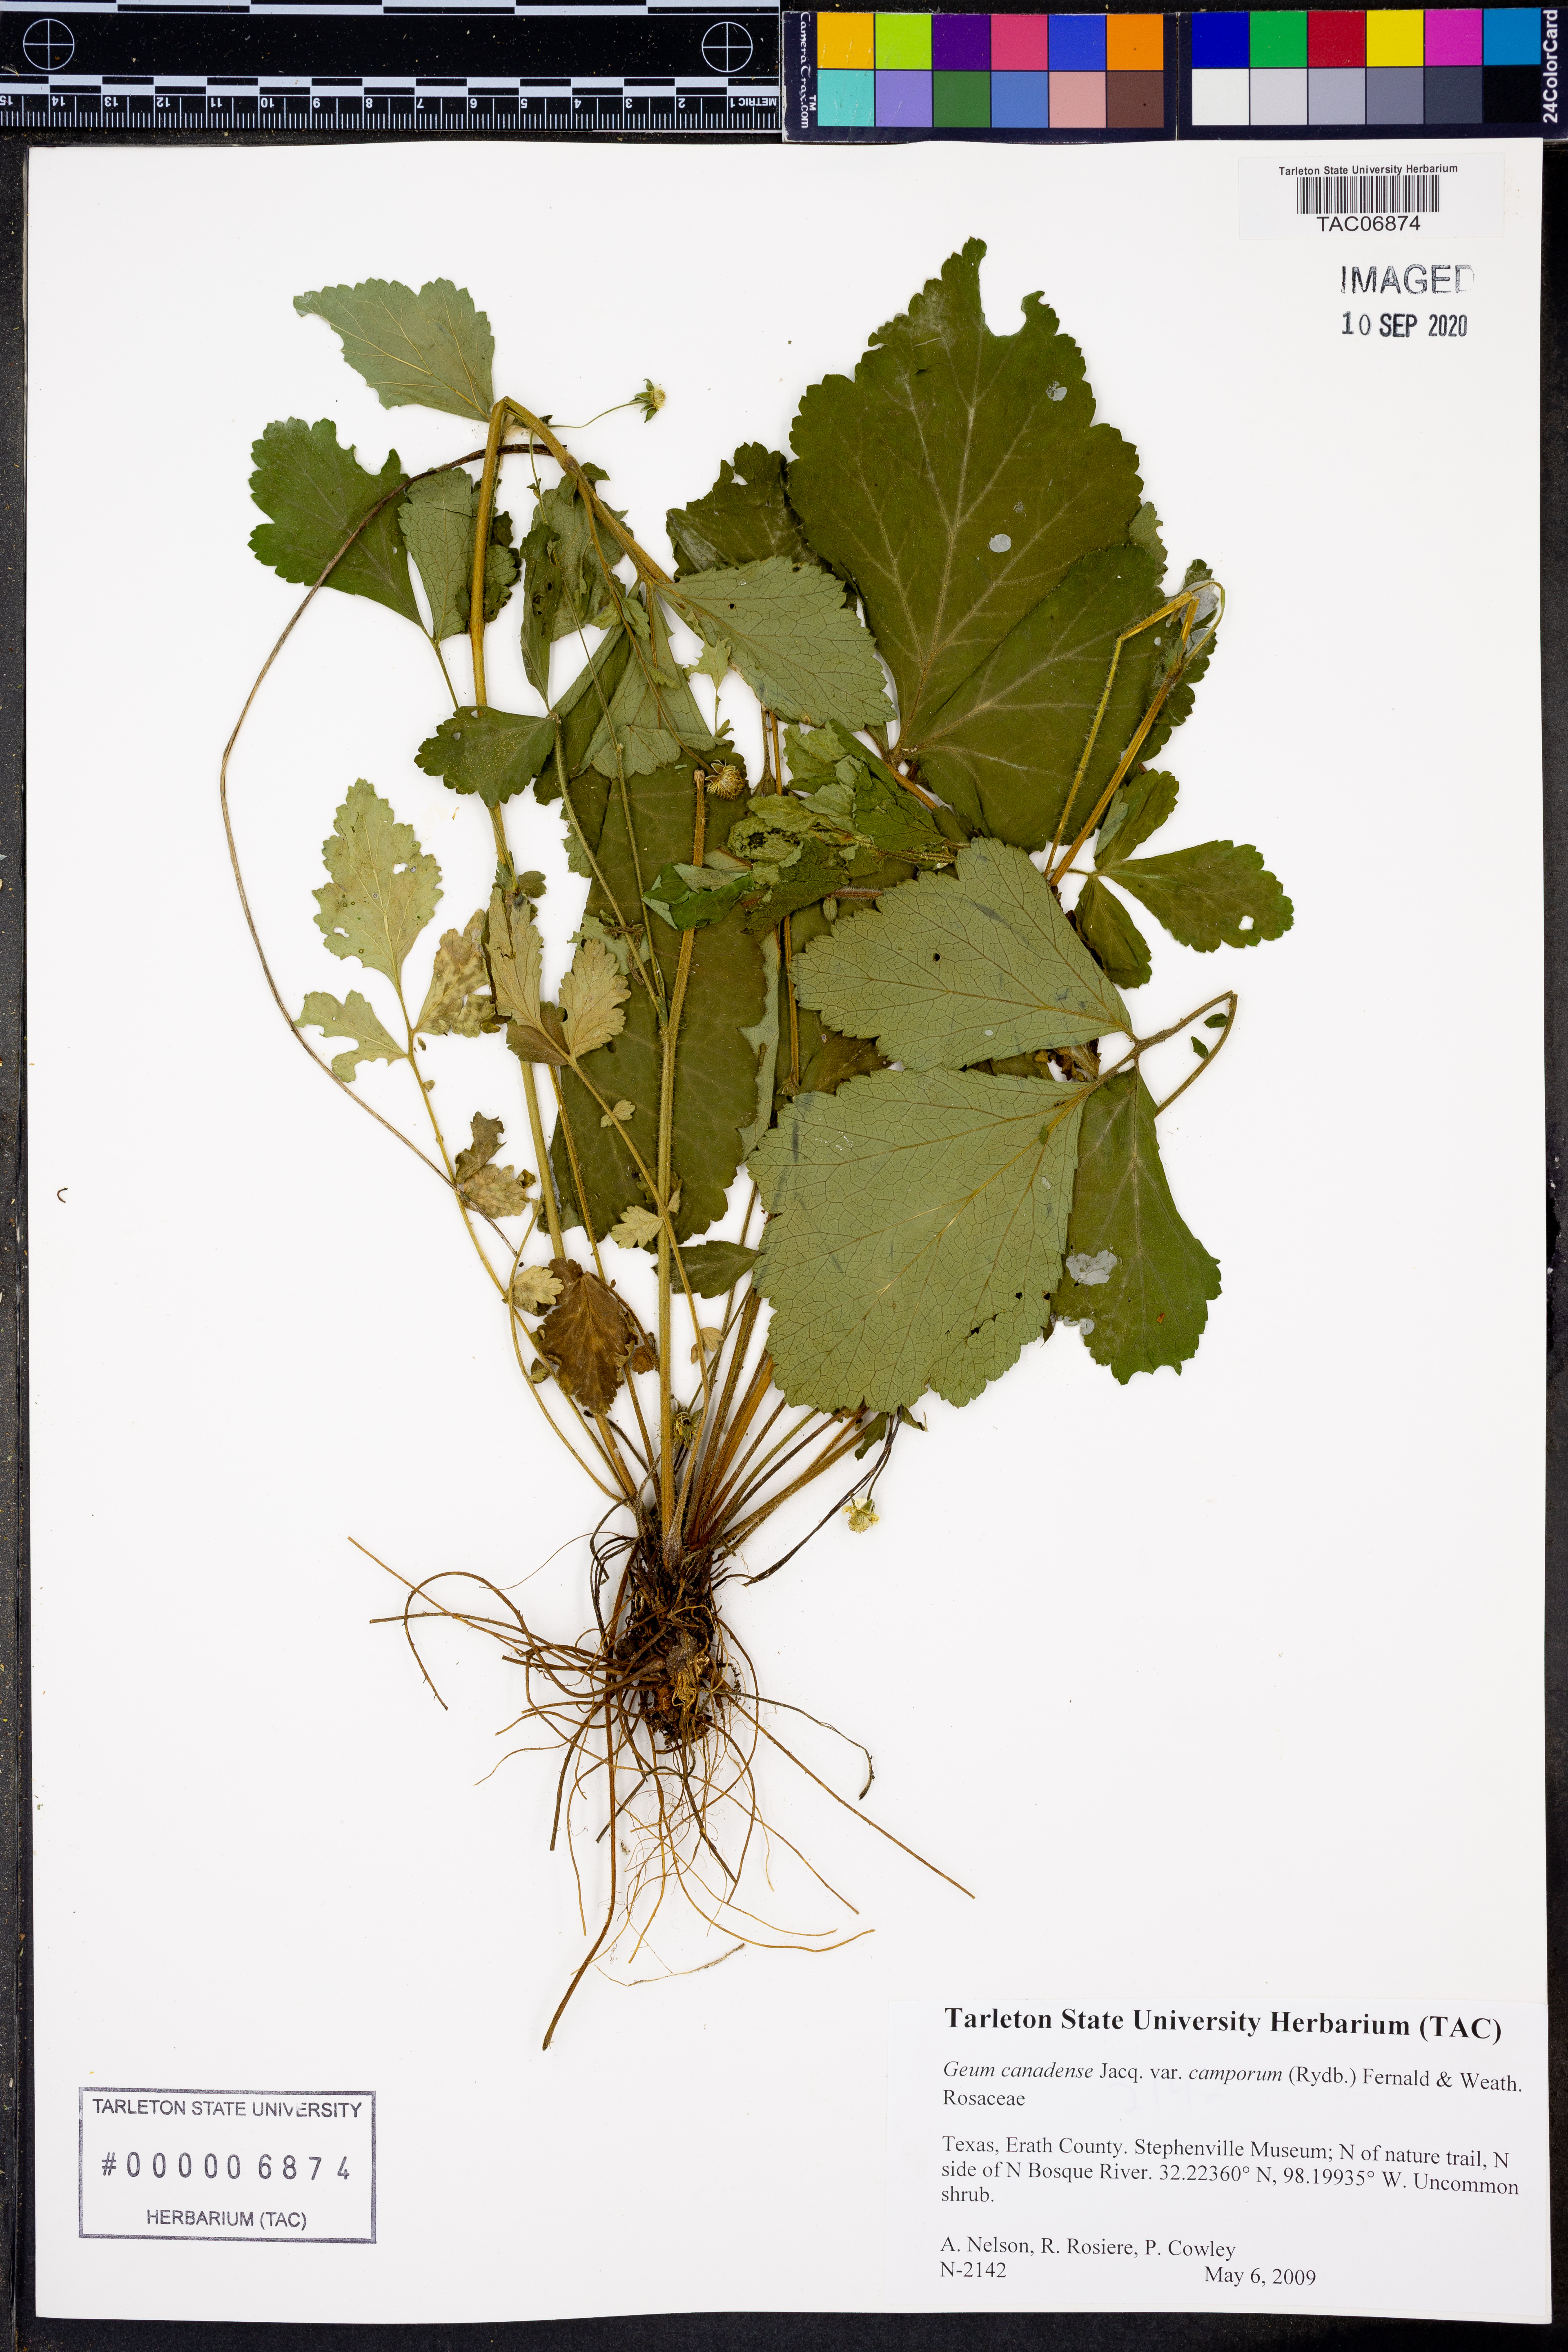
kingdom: Plantae
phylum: Tracheophyta
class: Magnoliopsida
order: Rosales
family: Rosaceae
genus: Geum
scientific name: Geum canadense
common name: White avens
